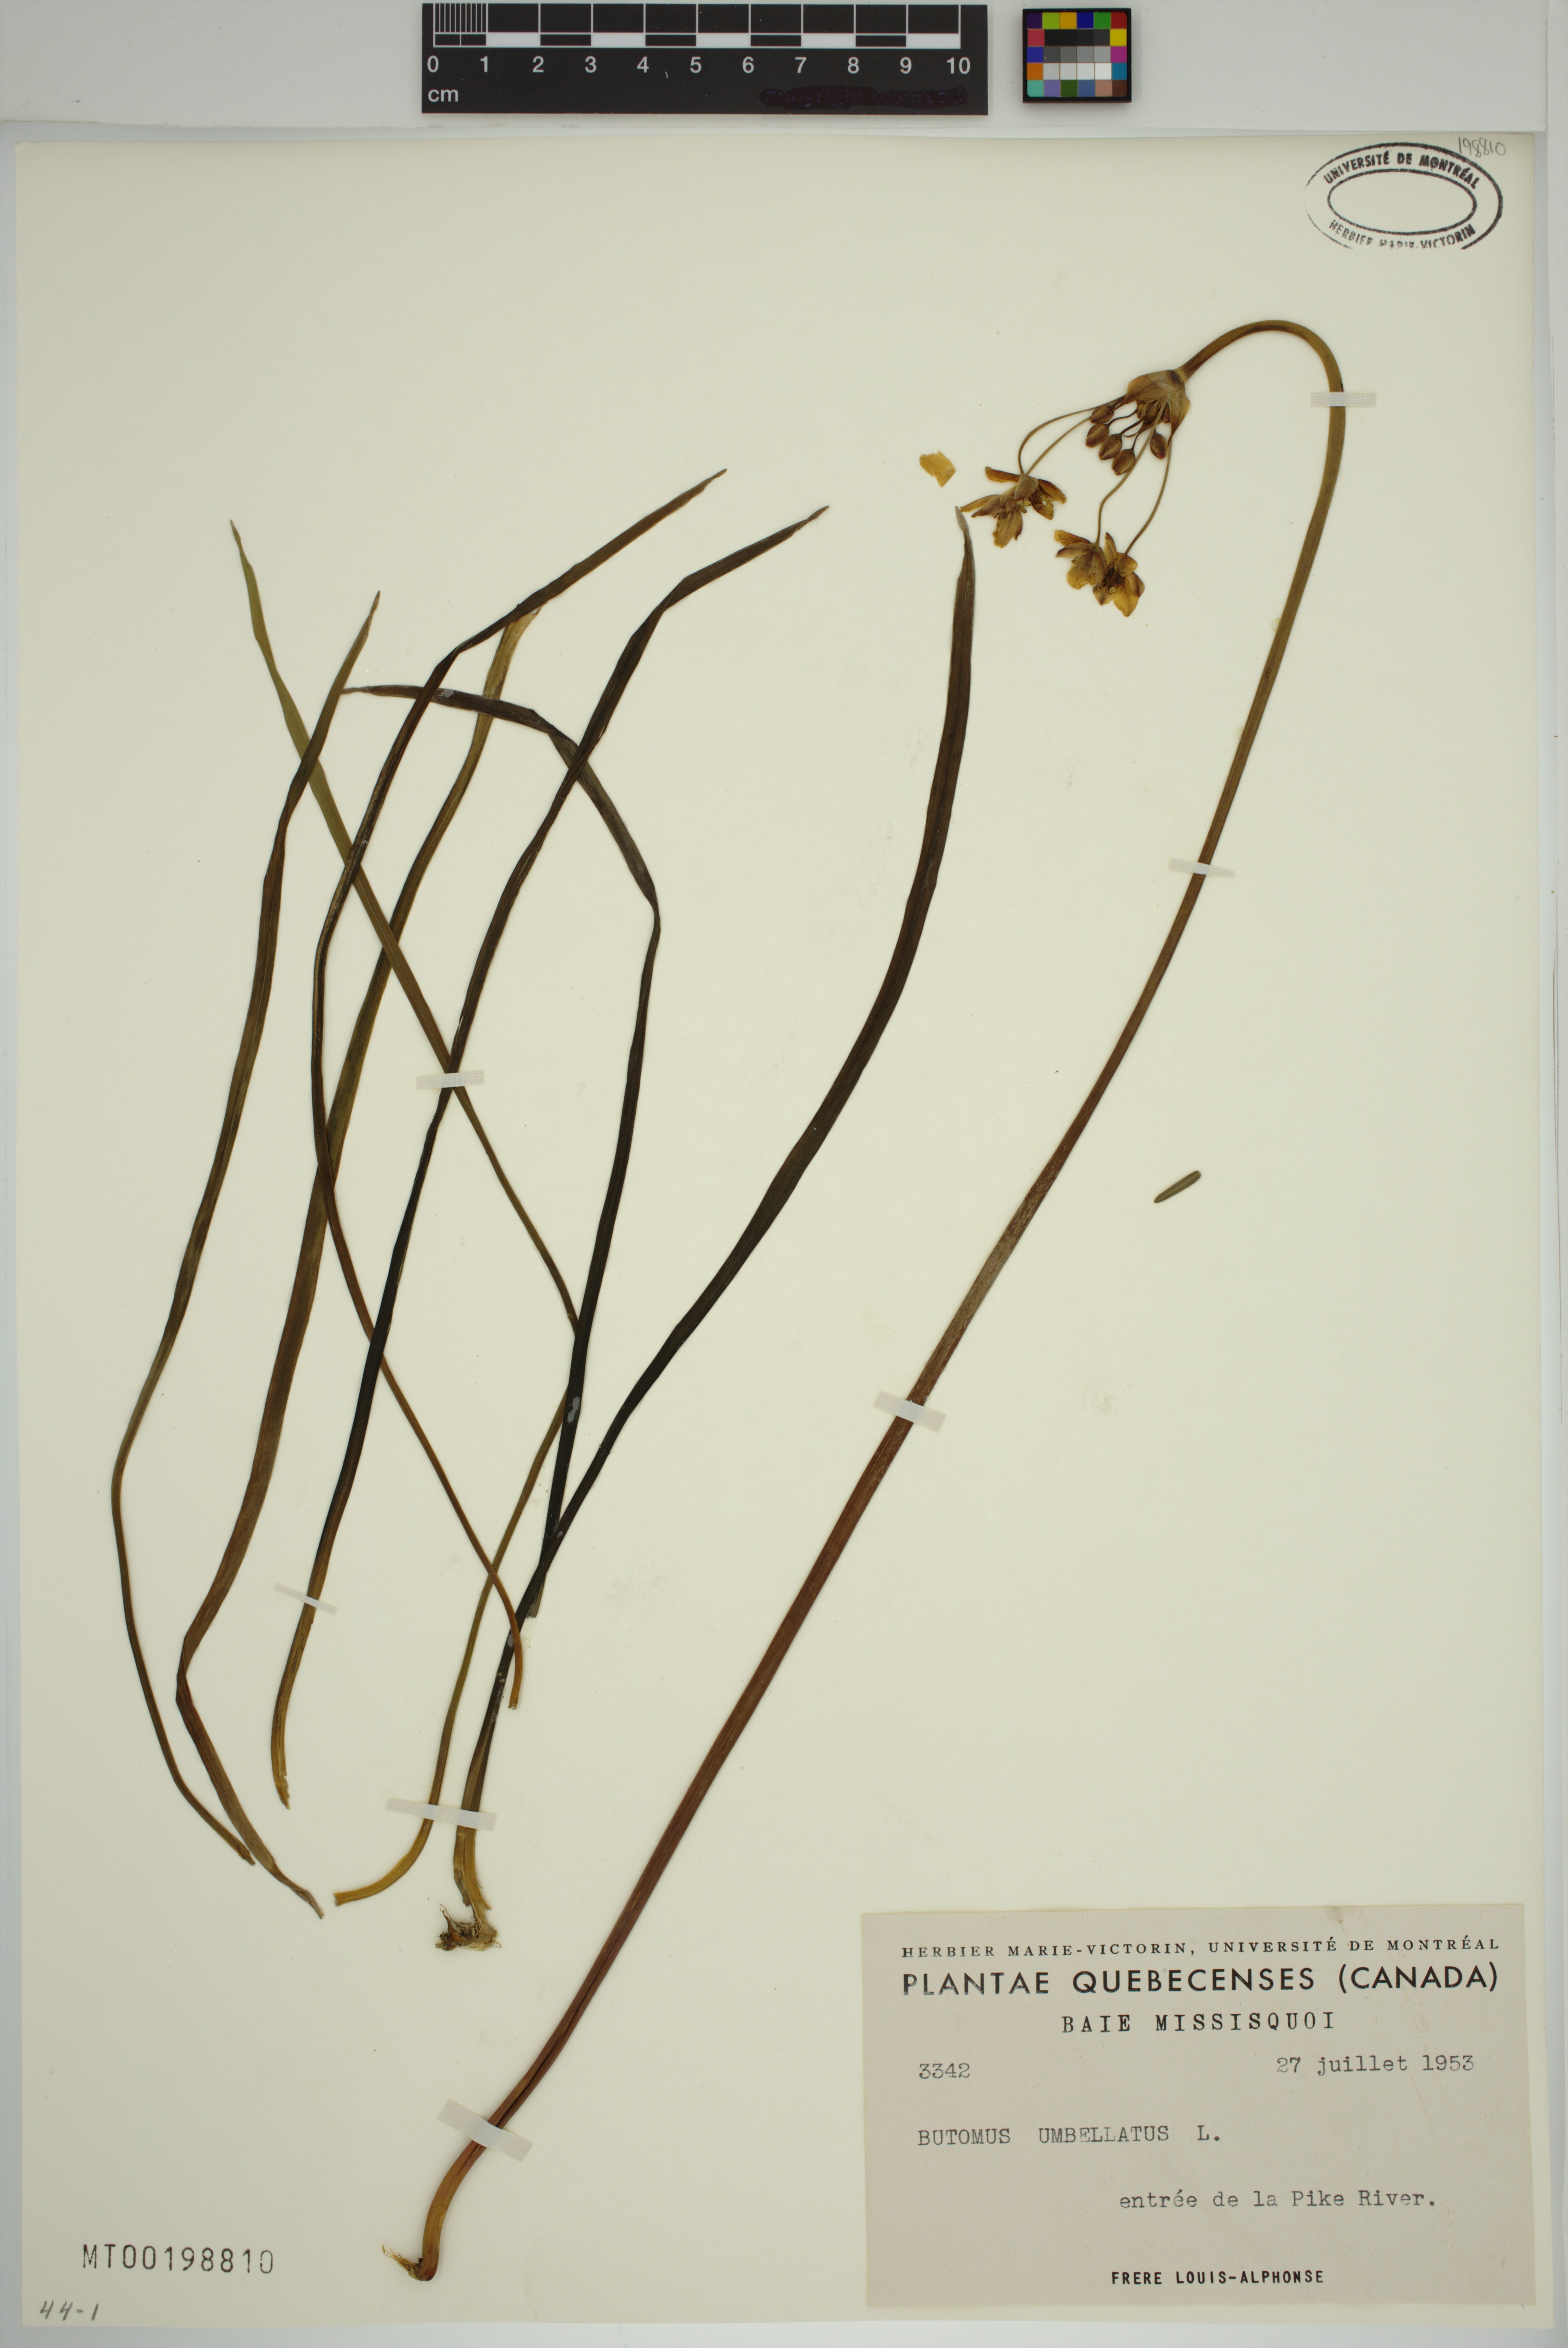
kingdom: Plantae
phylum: Tracheophyta
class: Liliopsida
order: Alismatales
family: Butomaceae
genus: Butomus
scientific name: Butomus umbellatus
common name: Flowering-rush
